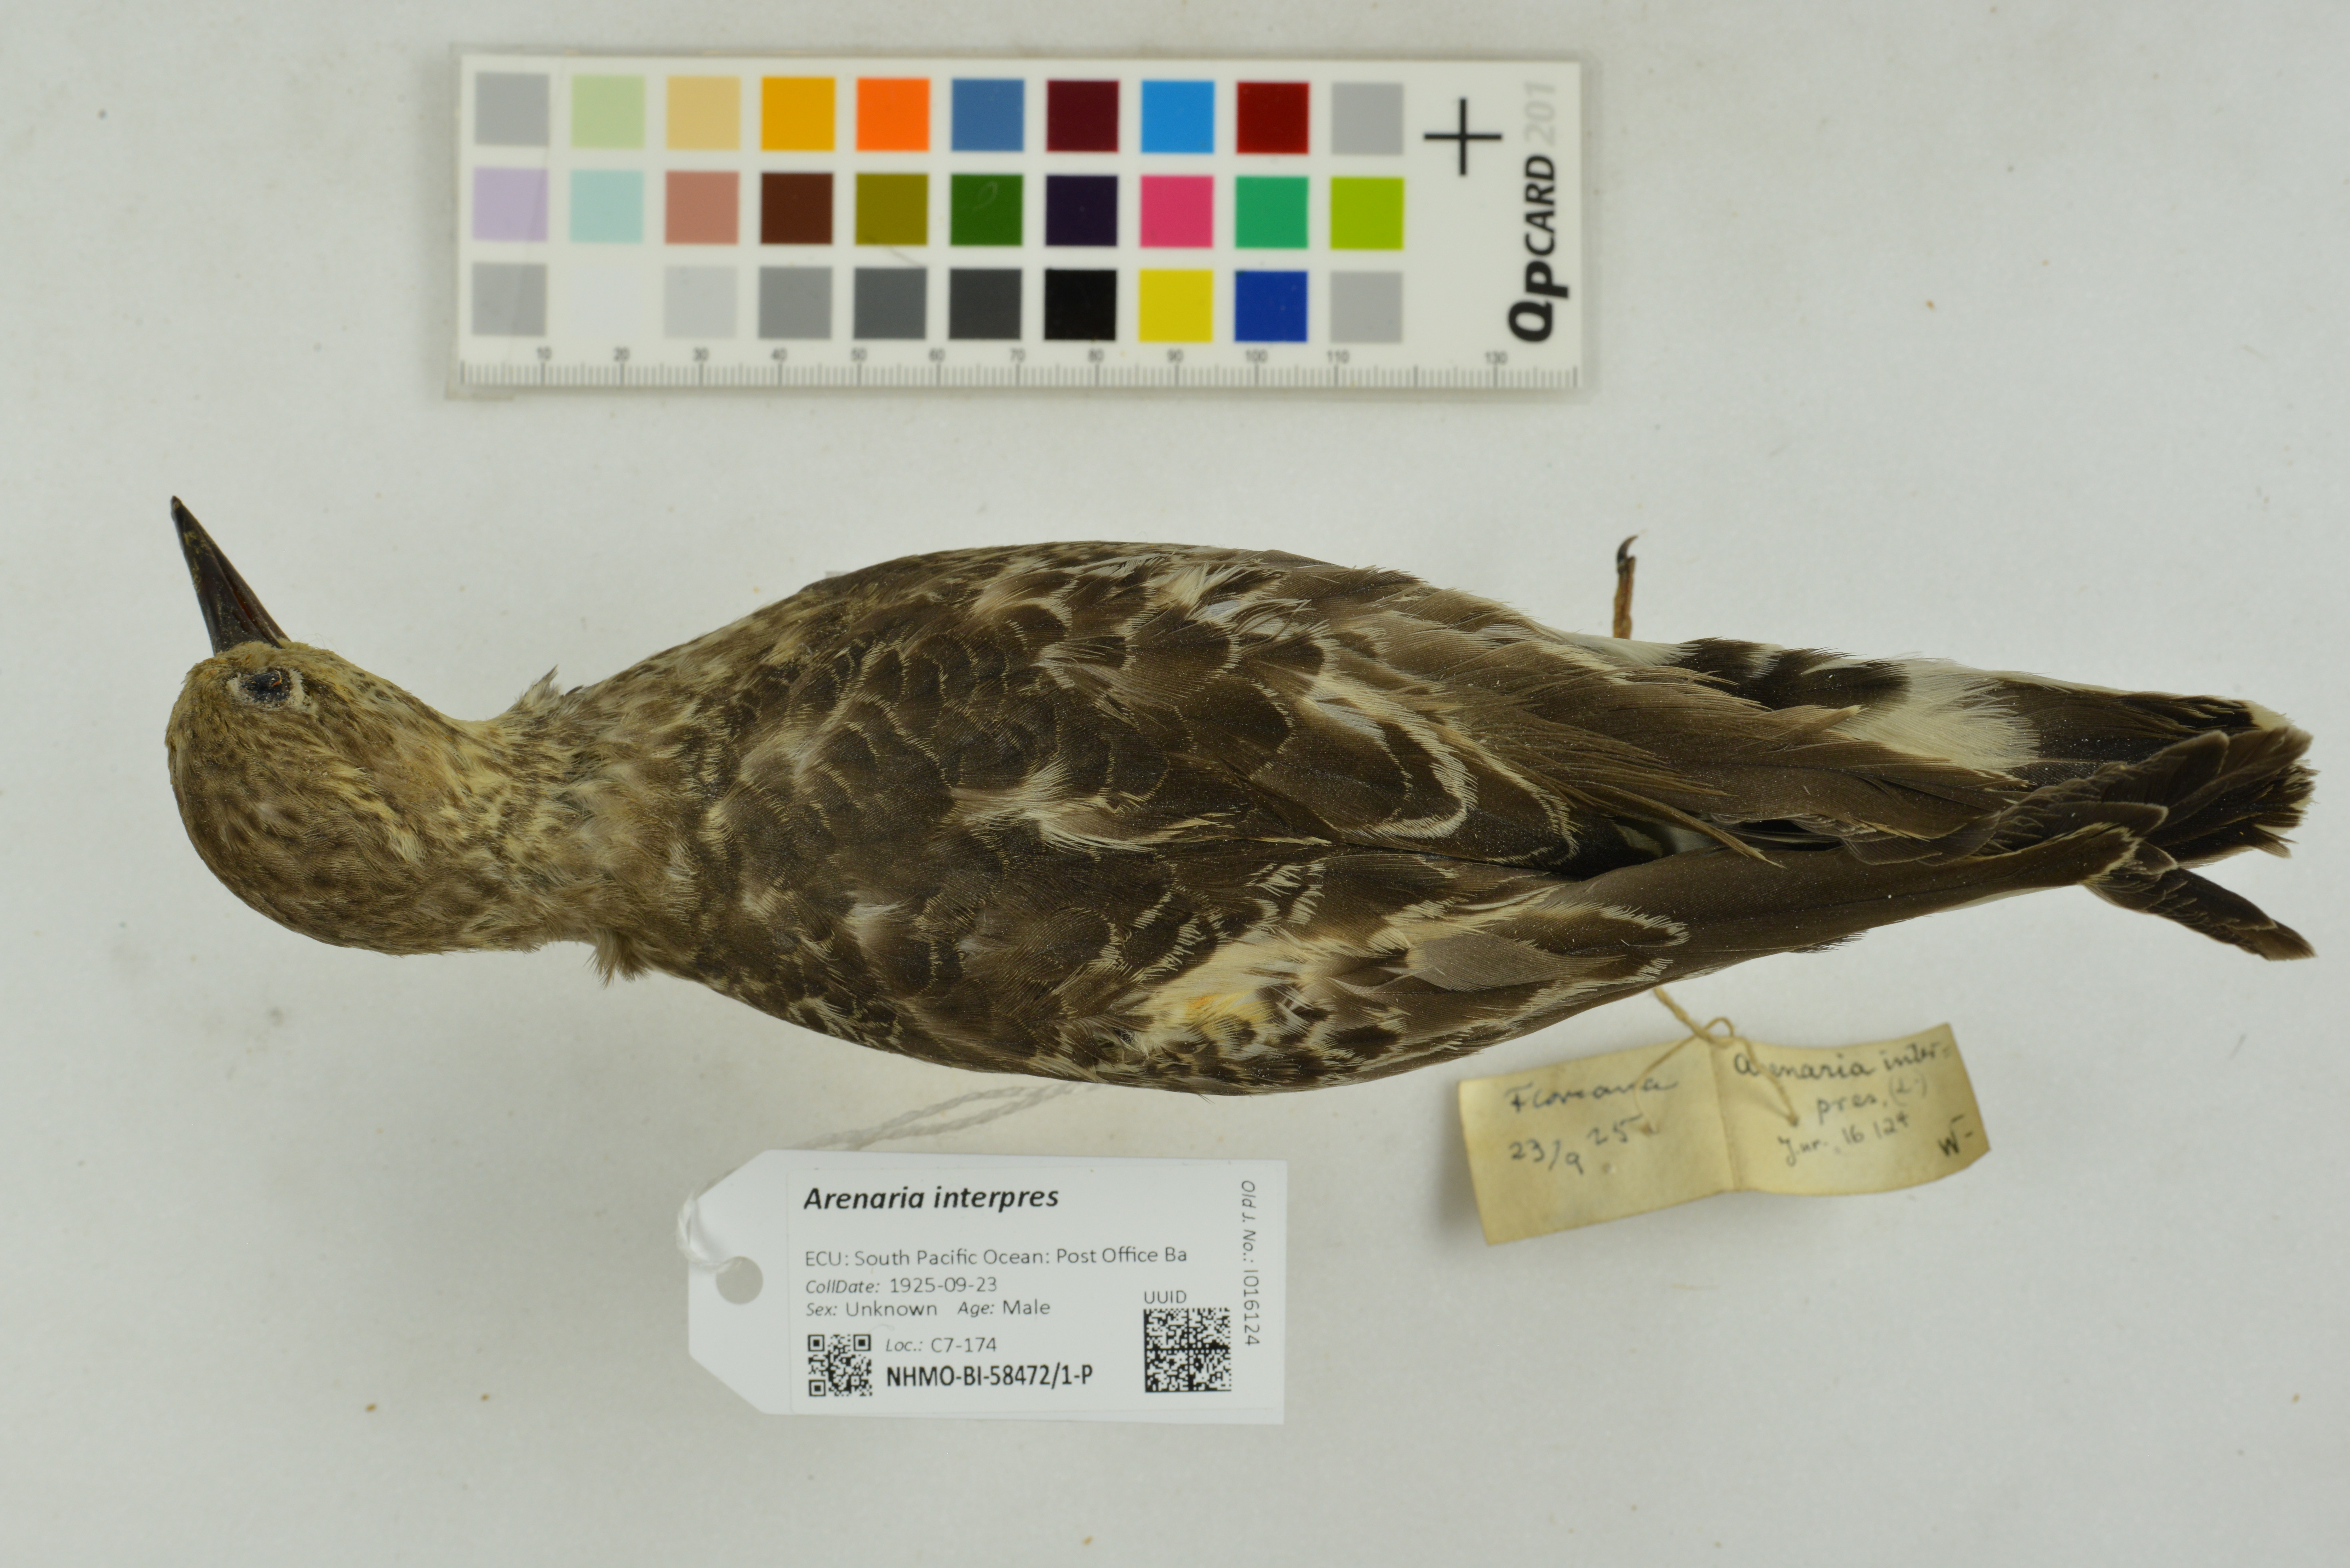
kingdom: Animalia
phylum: Chordata
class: Aves
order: Charadriiformes
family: Scolopacidae
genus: Arenaria
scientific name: Arenaria interpres
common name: Ruddy turnstone
